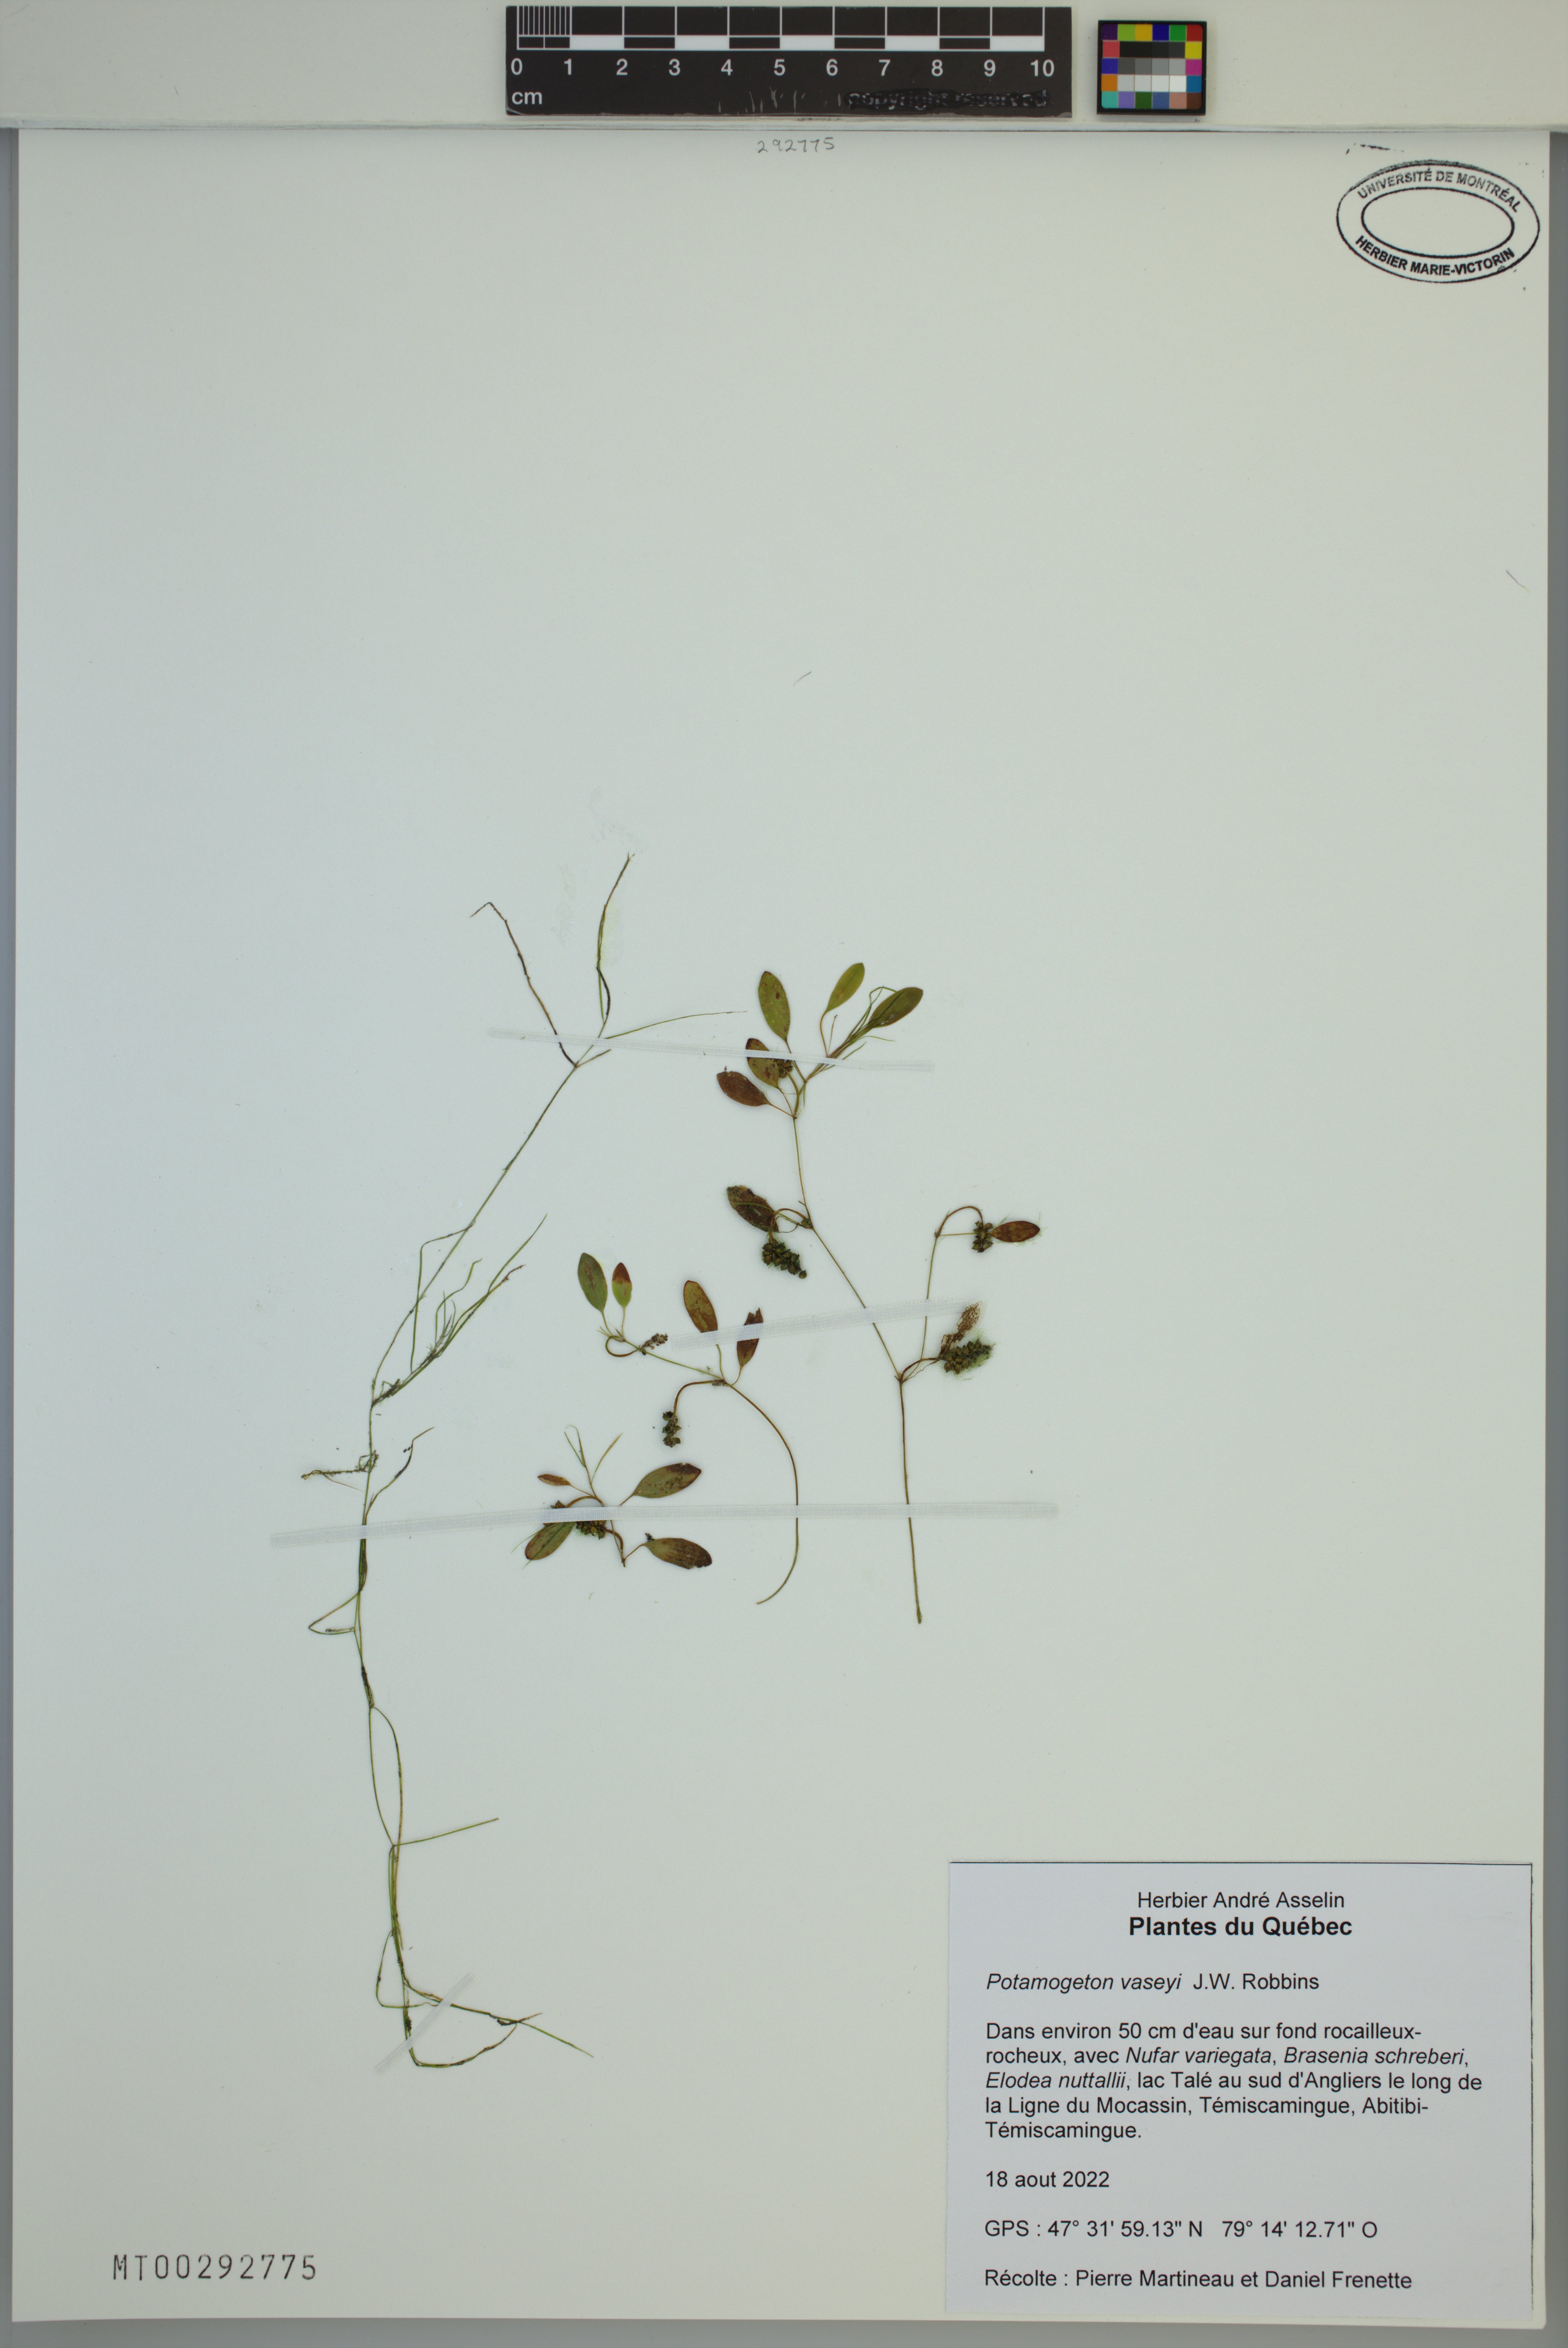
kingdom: Plantae
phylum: Tracheophyta
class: Liliopsida
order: Alismatales
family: Potamogetonaceae
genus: Potamogeton
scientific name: Potamogeton vaseyi
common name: Vasey's pondweed
